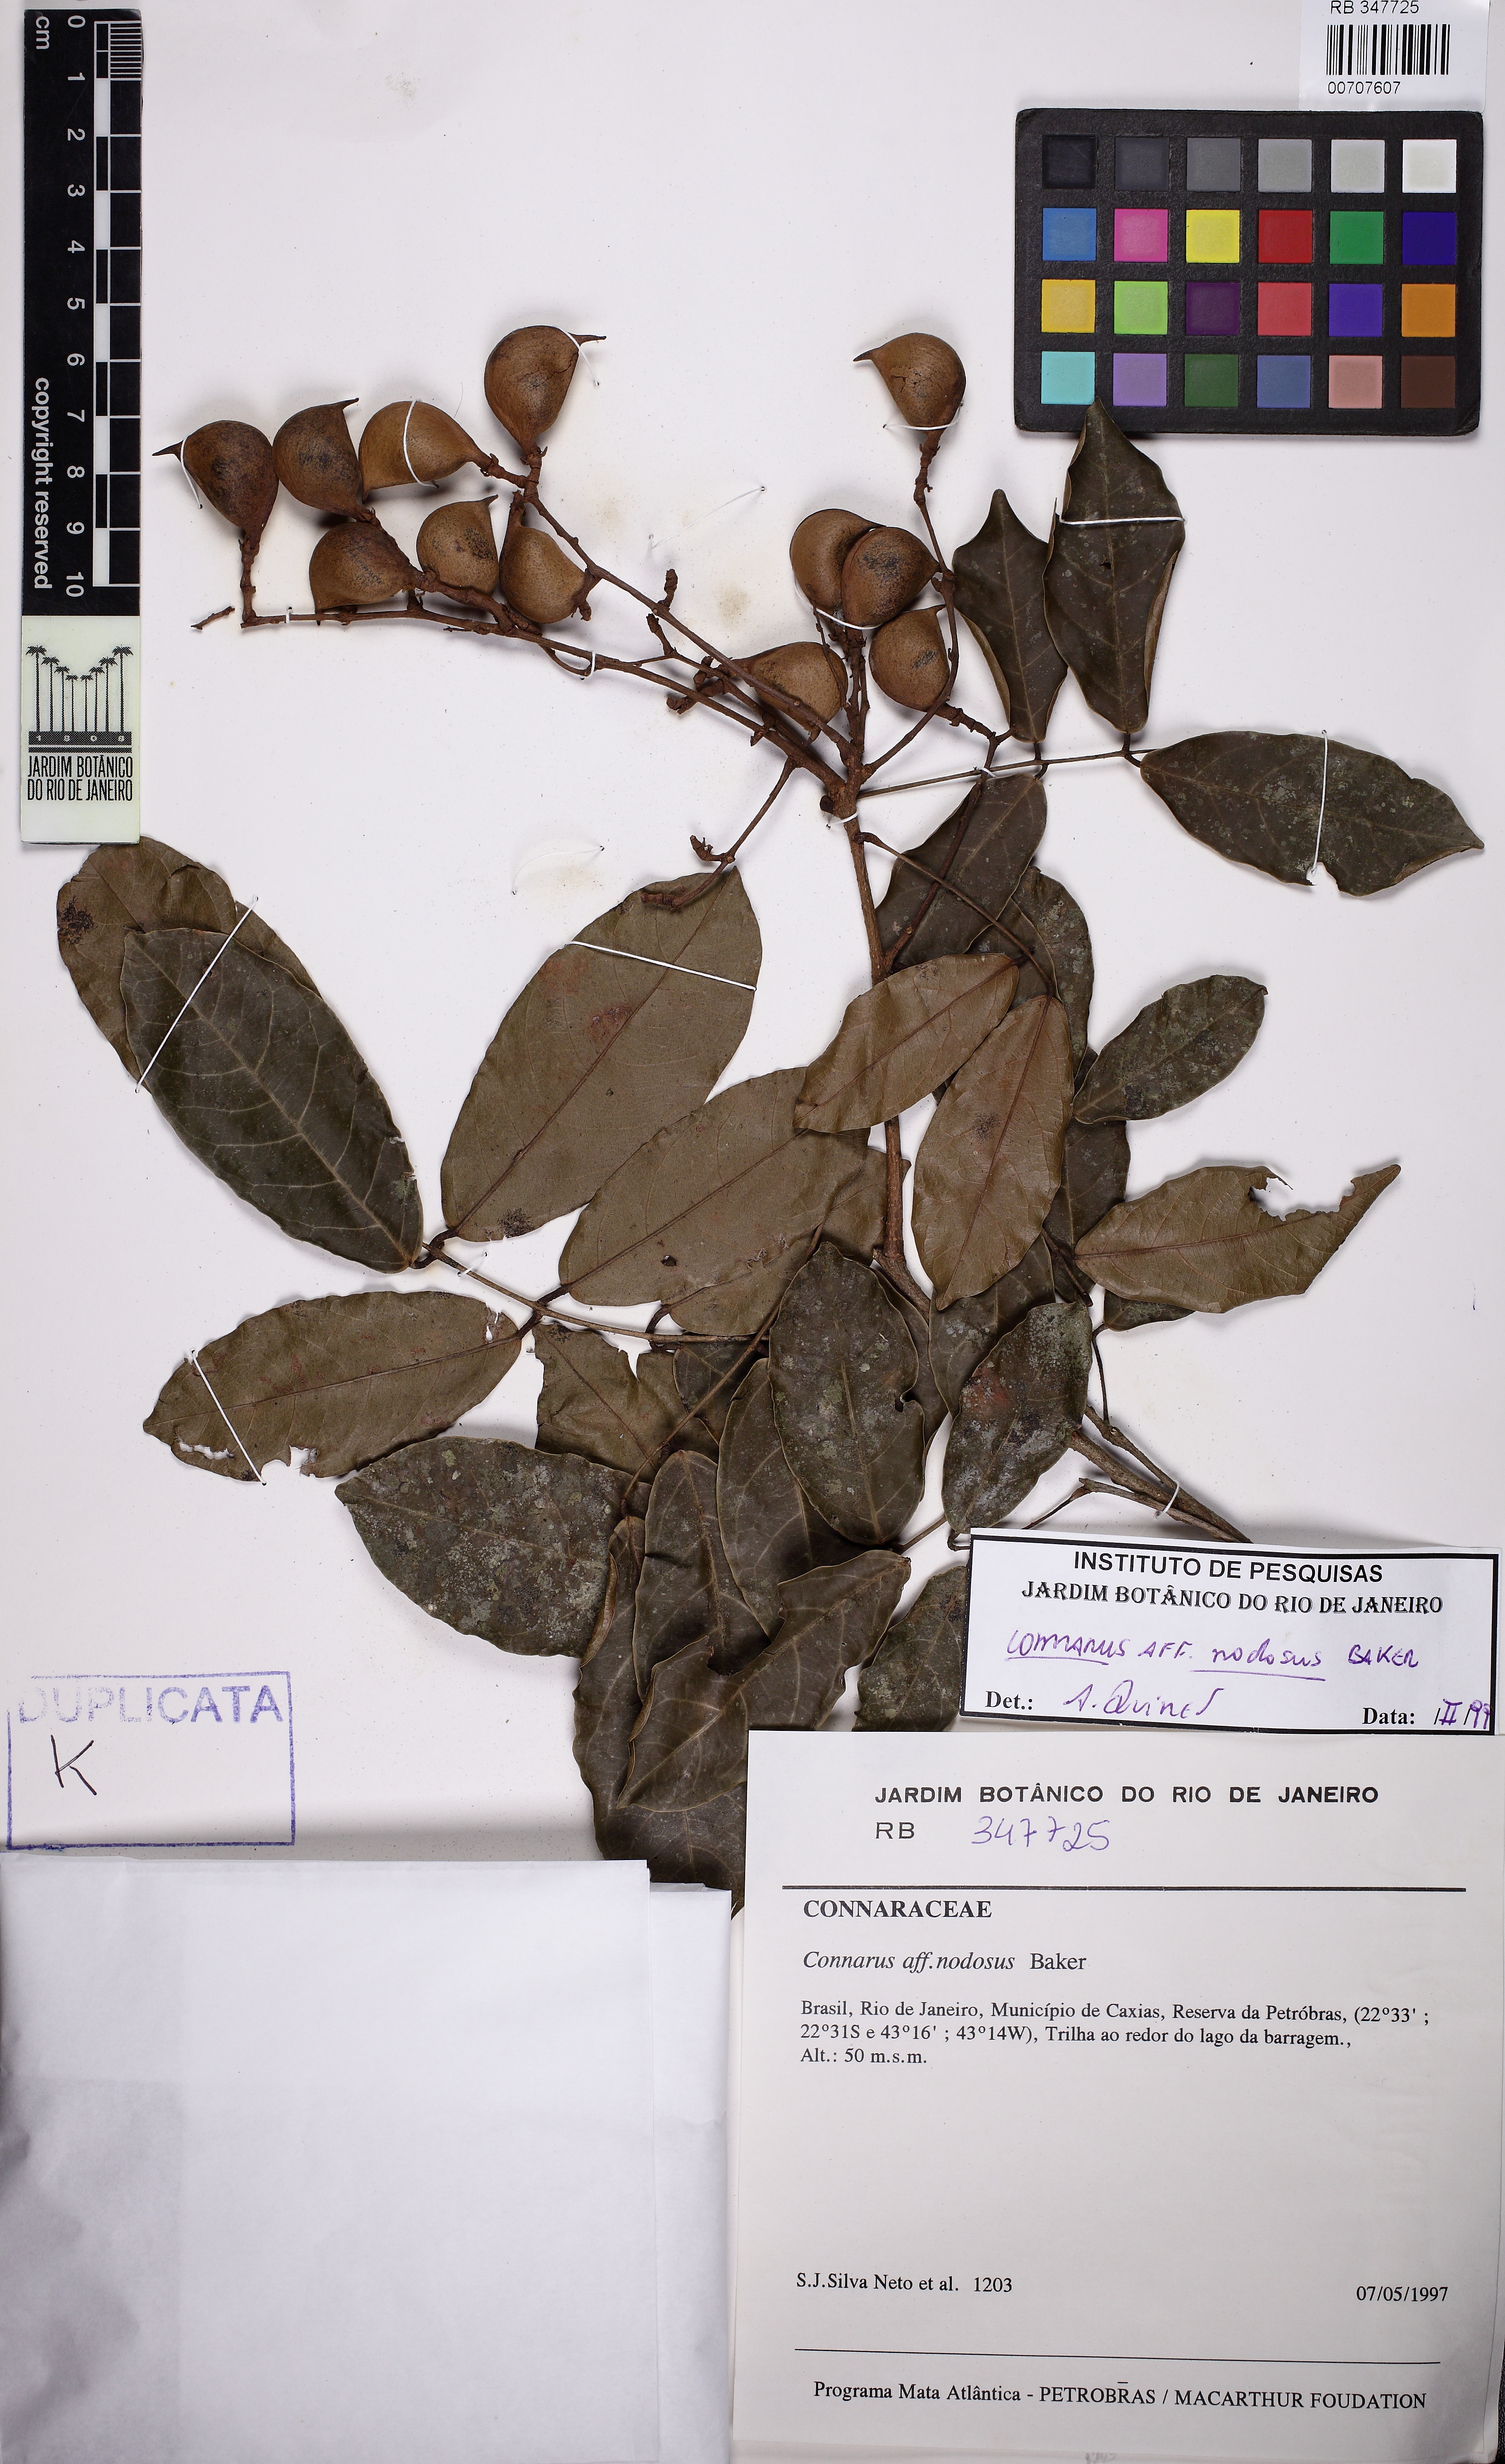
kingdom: Plantae
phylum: Tracheophyta
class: Magnoliopsida
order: Oxalidales
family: Connaraceae
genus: Connarus
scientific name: Connarus nodosus
